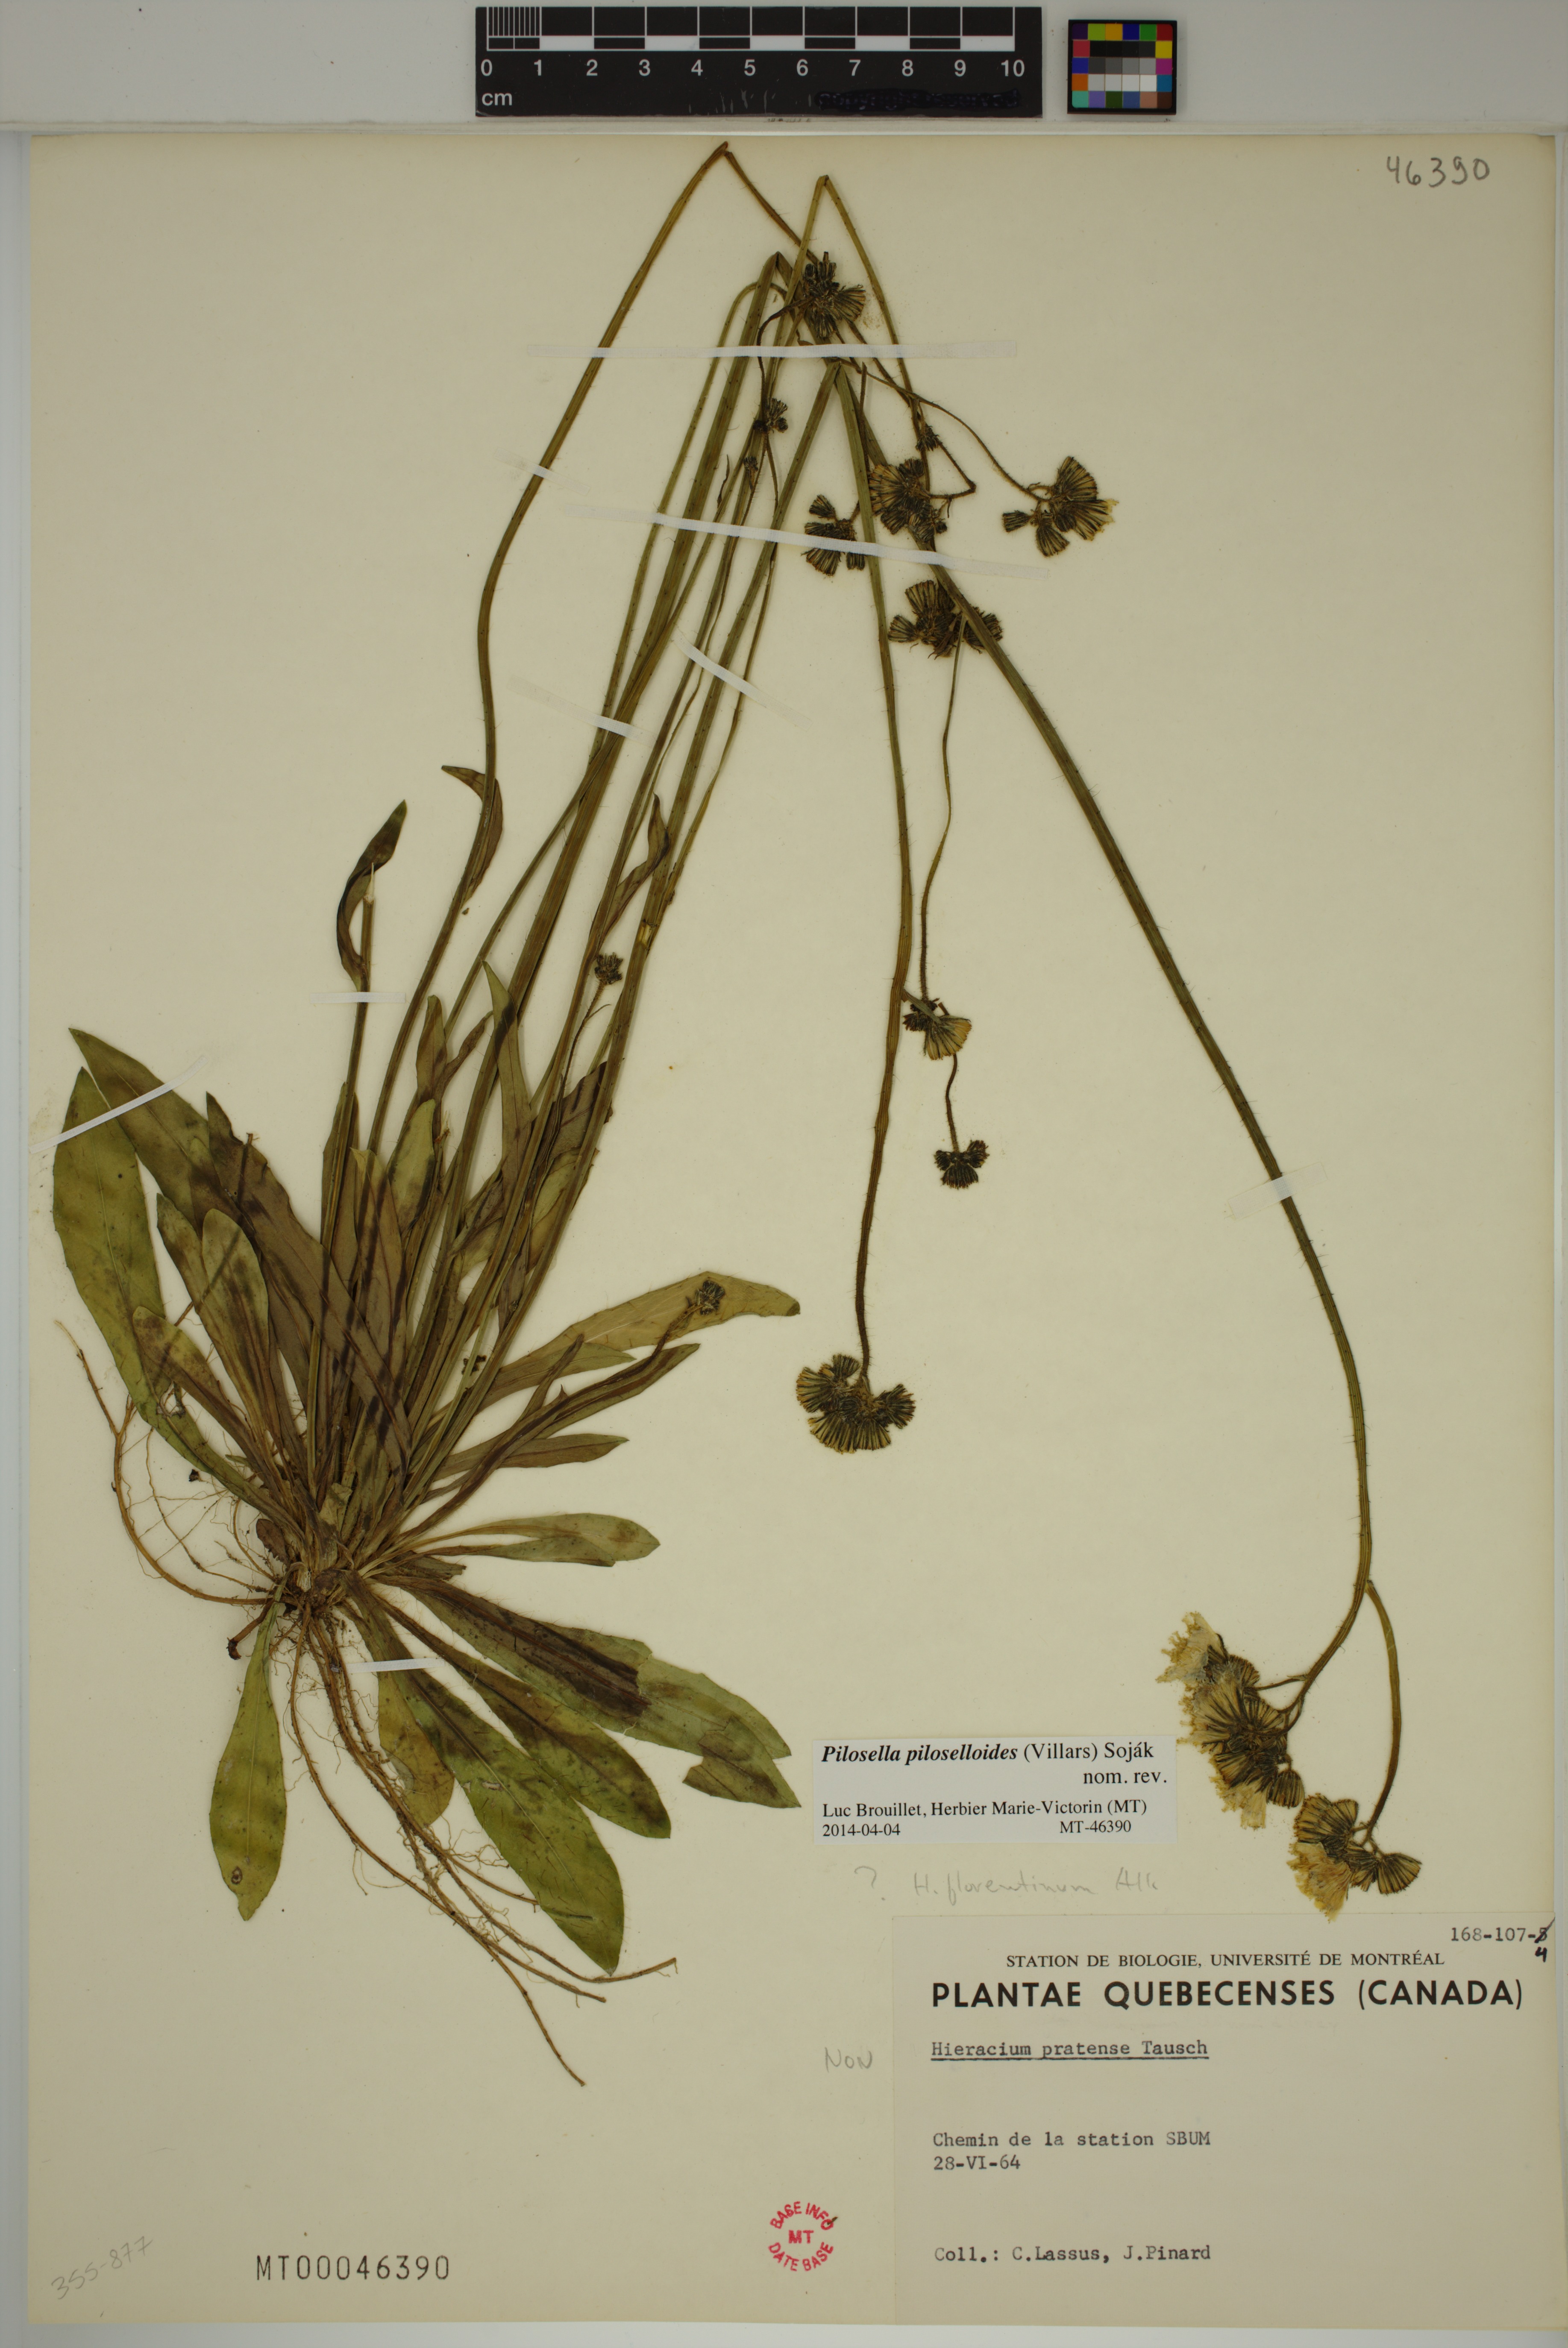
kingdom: Plantae
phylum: Tracheophyta
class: Magnoliopsida
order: Asterales
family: Asteraceae
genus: Pilosella
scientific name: Pilosella piloselloides
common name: Glaucous king-devil
